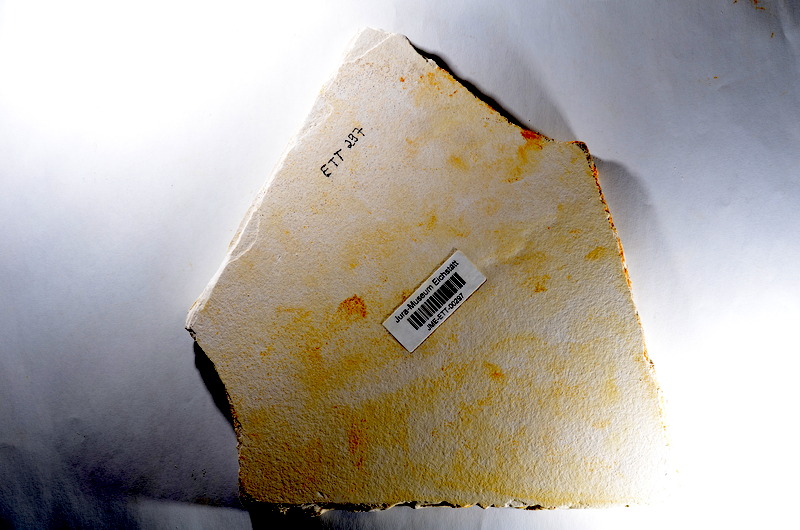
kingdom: Animalia
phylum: Chordata
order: Salmoniformes
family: Orthogonikleithridae
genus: Orthogonikleithrus
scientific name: Orthogonikleithrus hoelli
